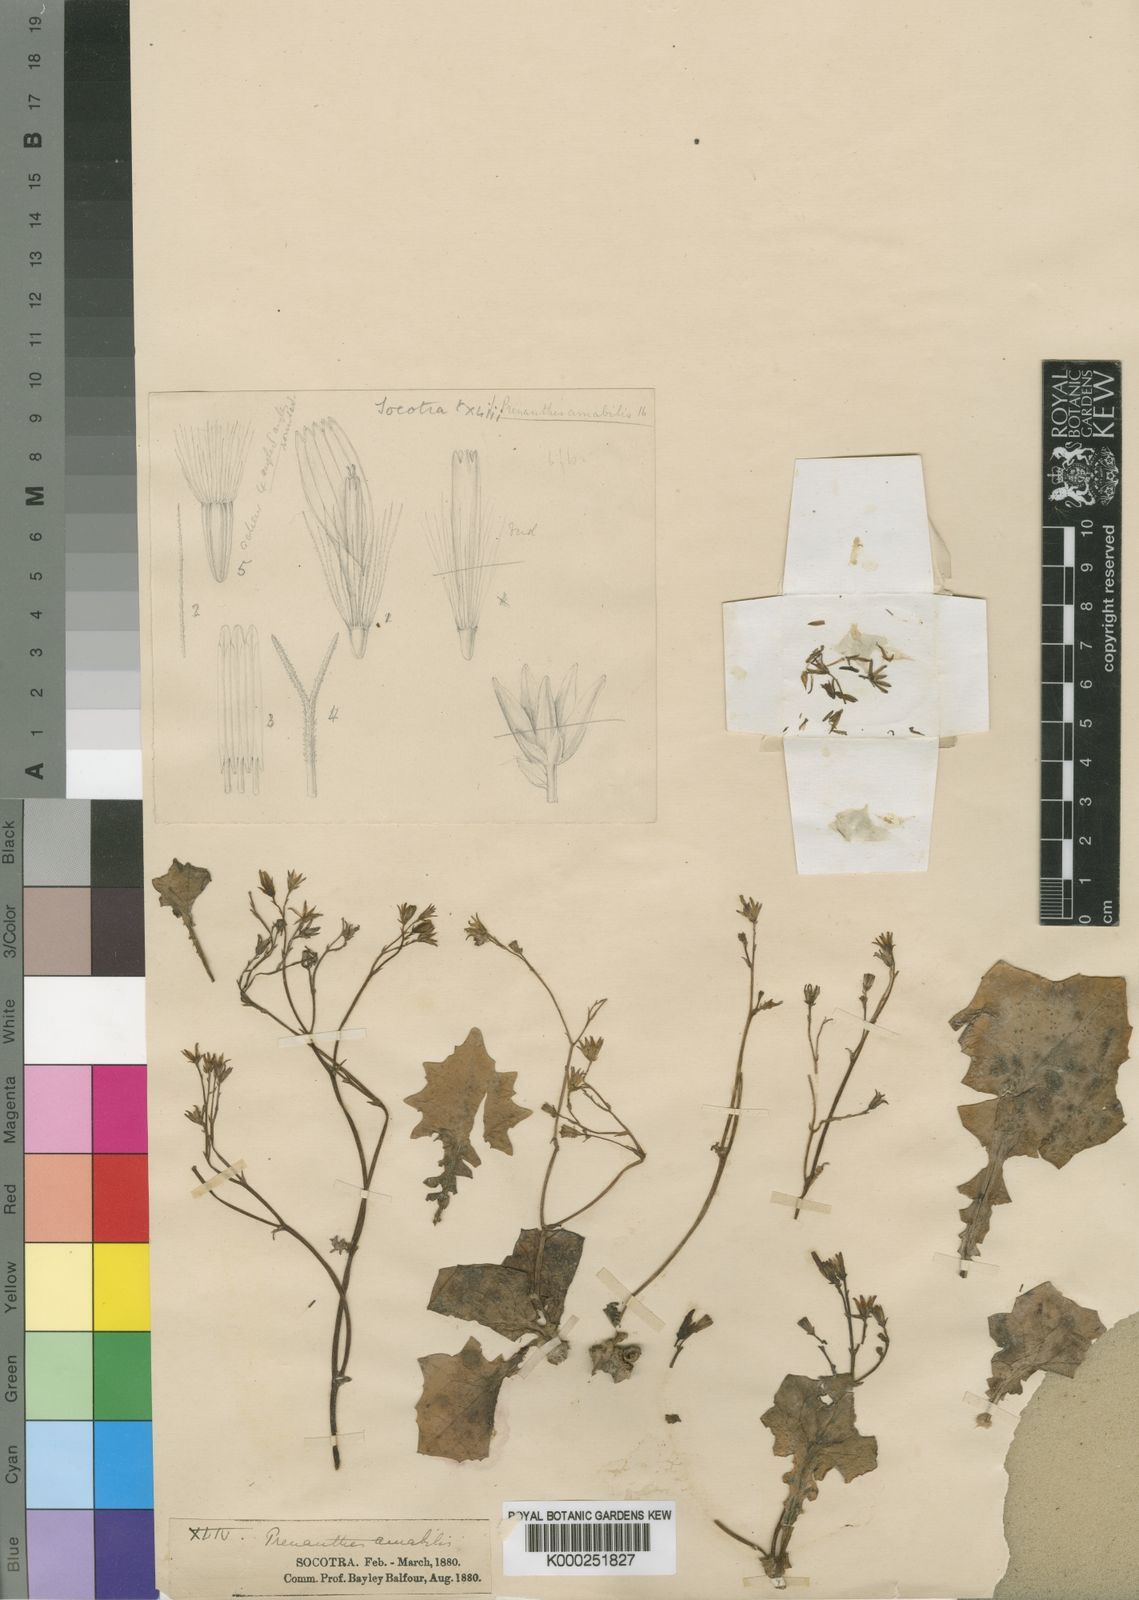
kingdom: Plantae
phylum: Tracheophyta
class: Magnoliopsida
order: Asterales
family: Asteraceae
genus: Erythroseris
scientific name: Erythroseris amabilis
